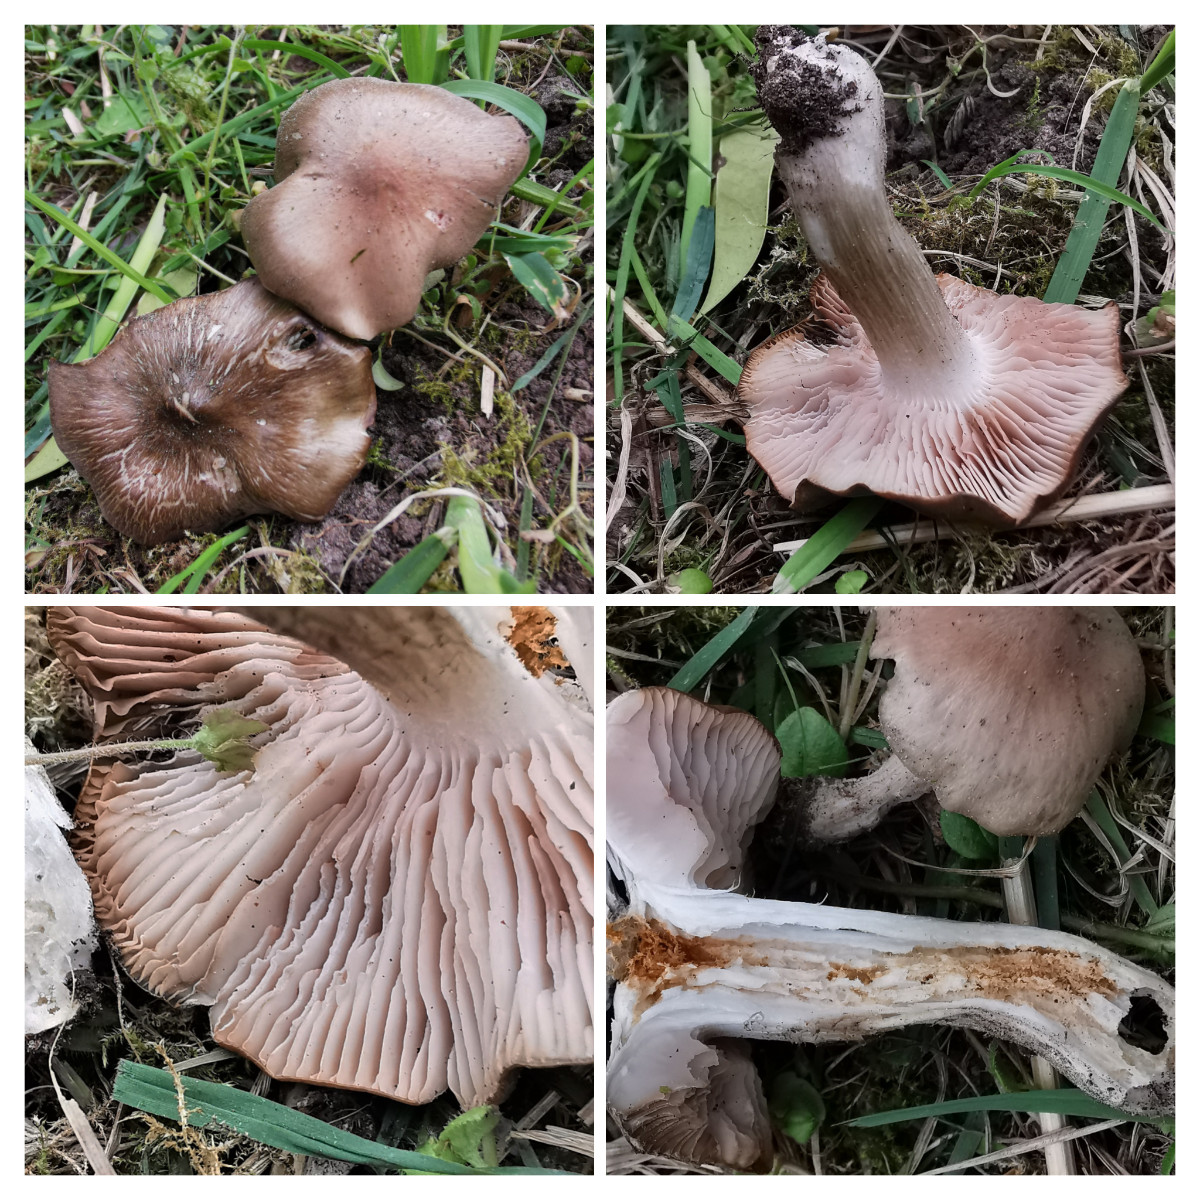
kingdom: Fungi
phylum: Basidiomycota
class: Agaricomycetes
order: Agaricales
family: Entolomataceae
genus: Entoloma
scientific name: Entoloma clypeatum
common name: flammet rødblad
